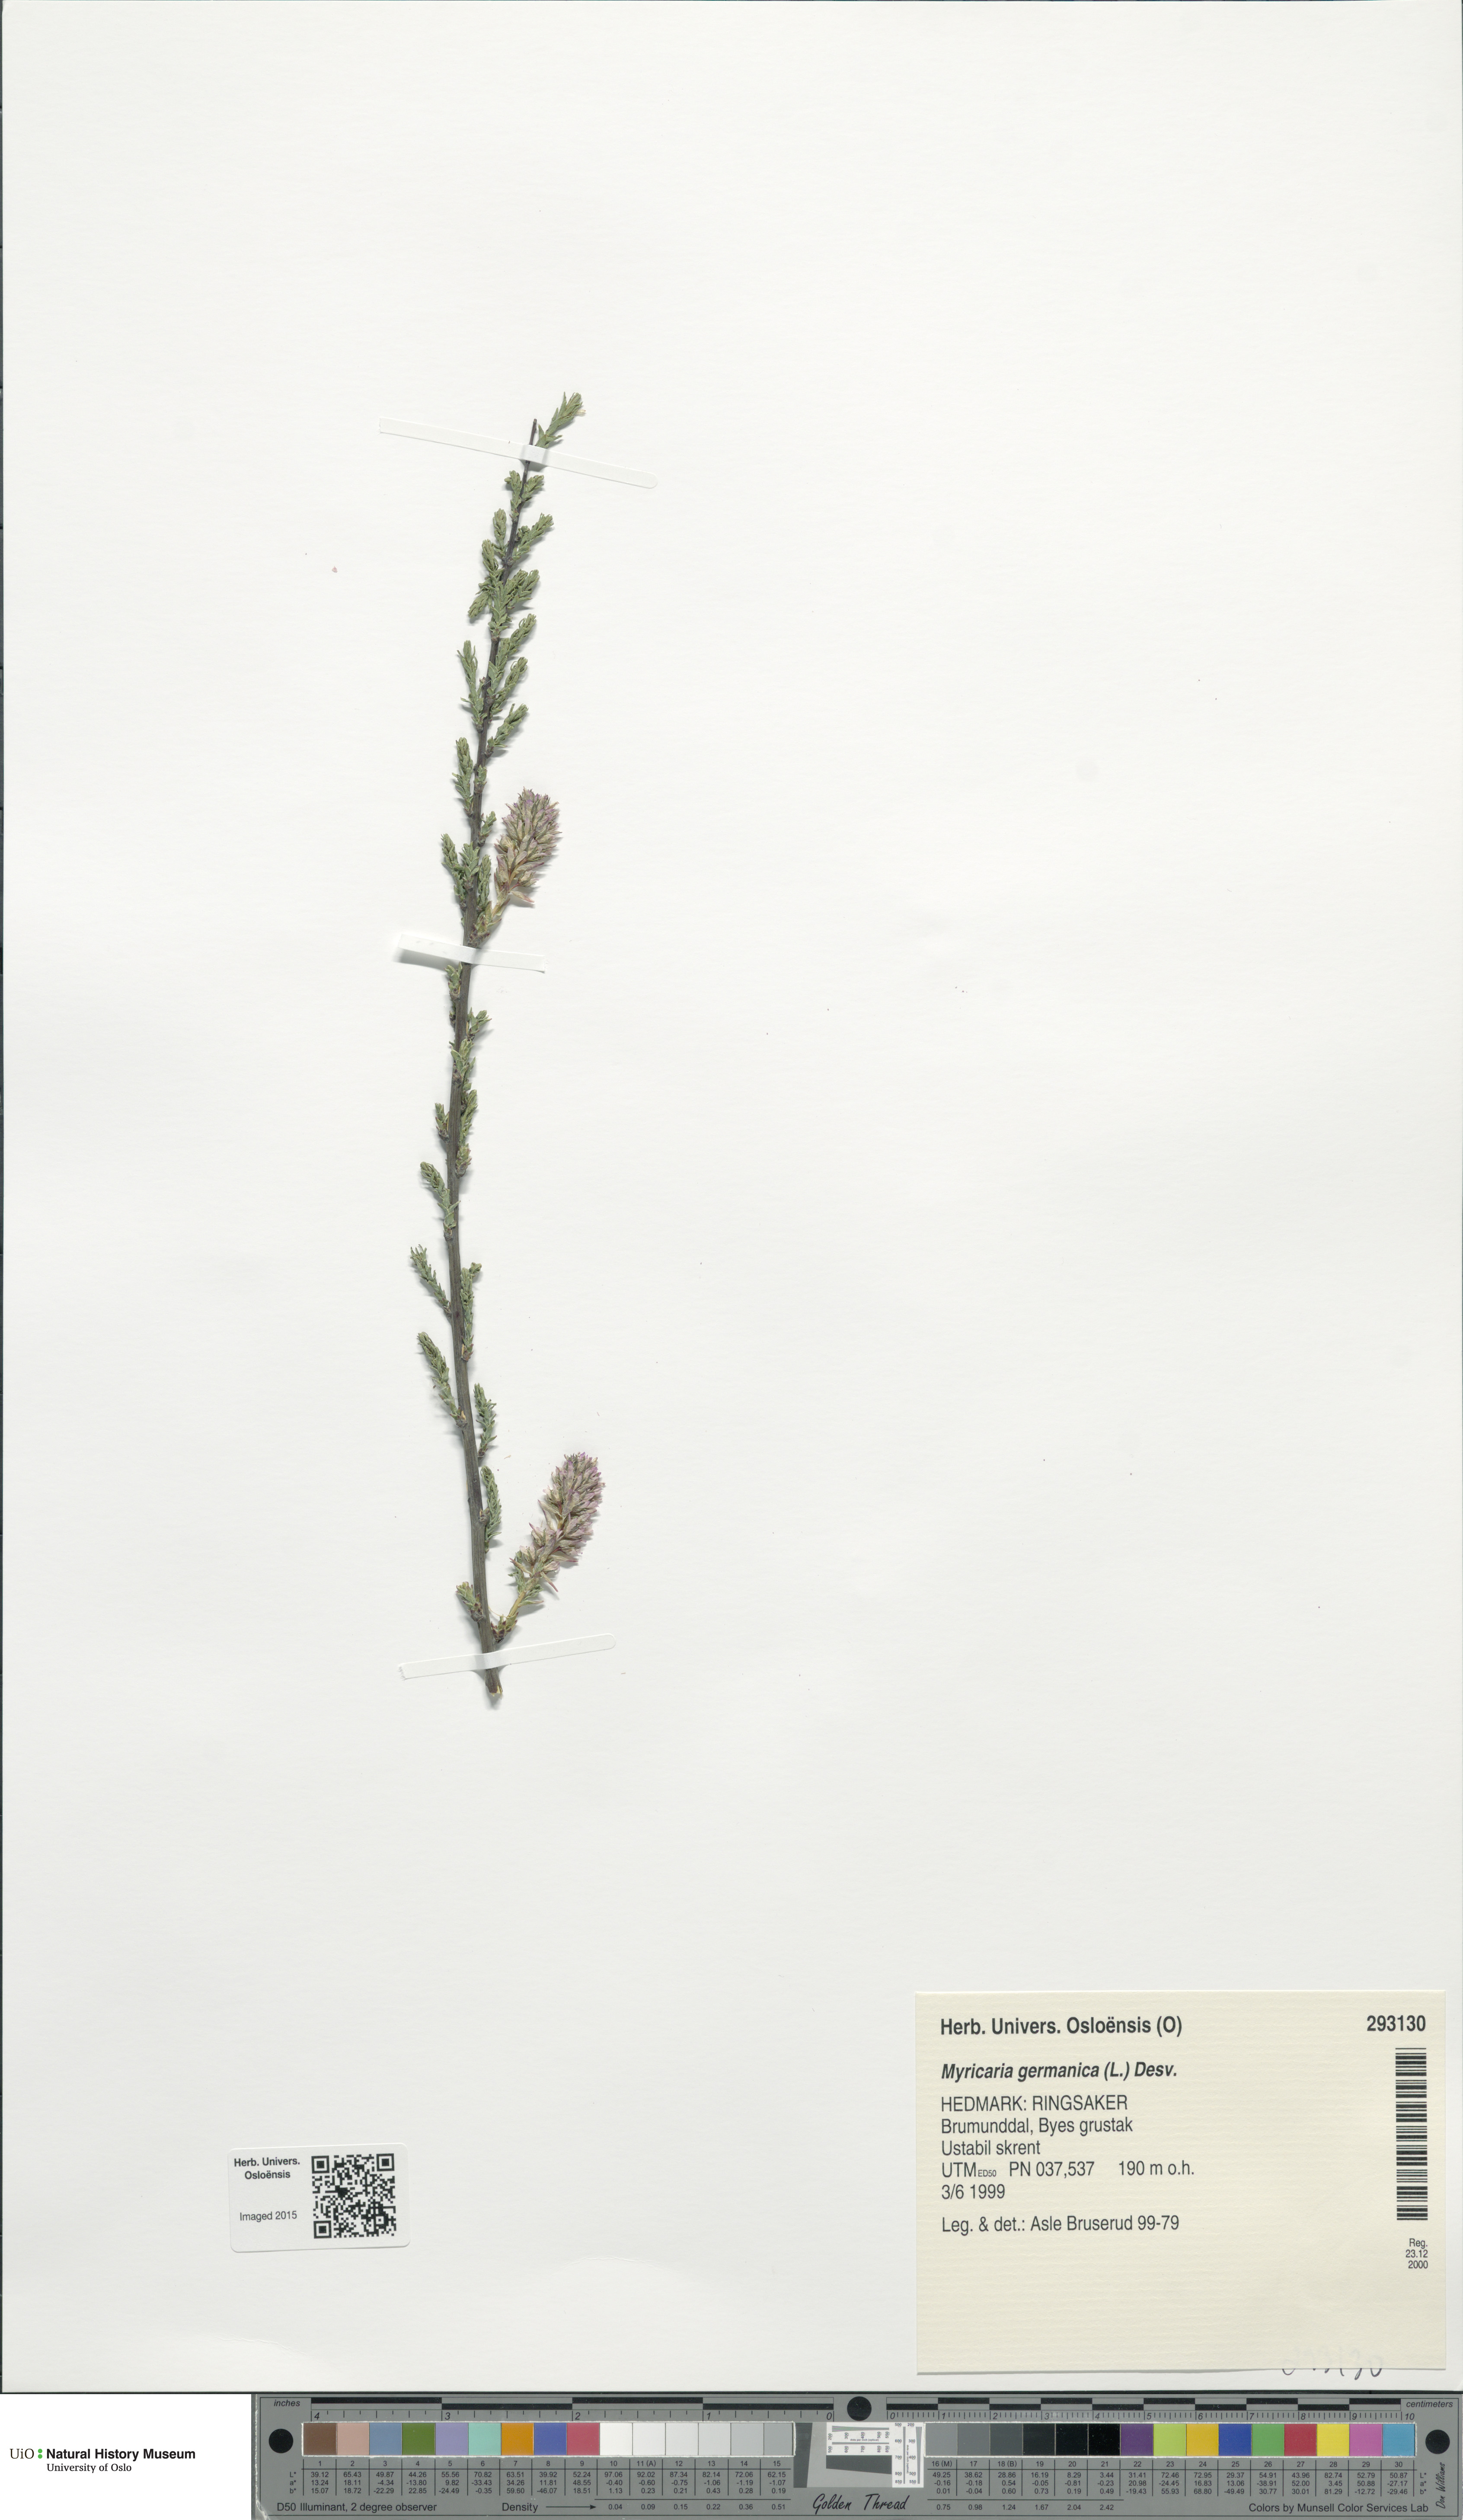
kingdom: Plantae
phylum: Tracheophyta
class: Magnoliopsida
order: Caryophyllales
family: Tamaricaceae
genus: Myricaria
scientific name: Myricaria germanica
